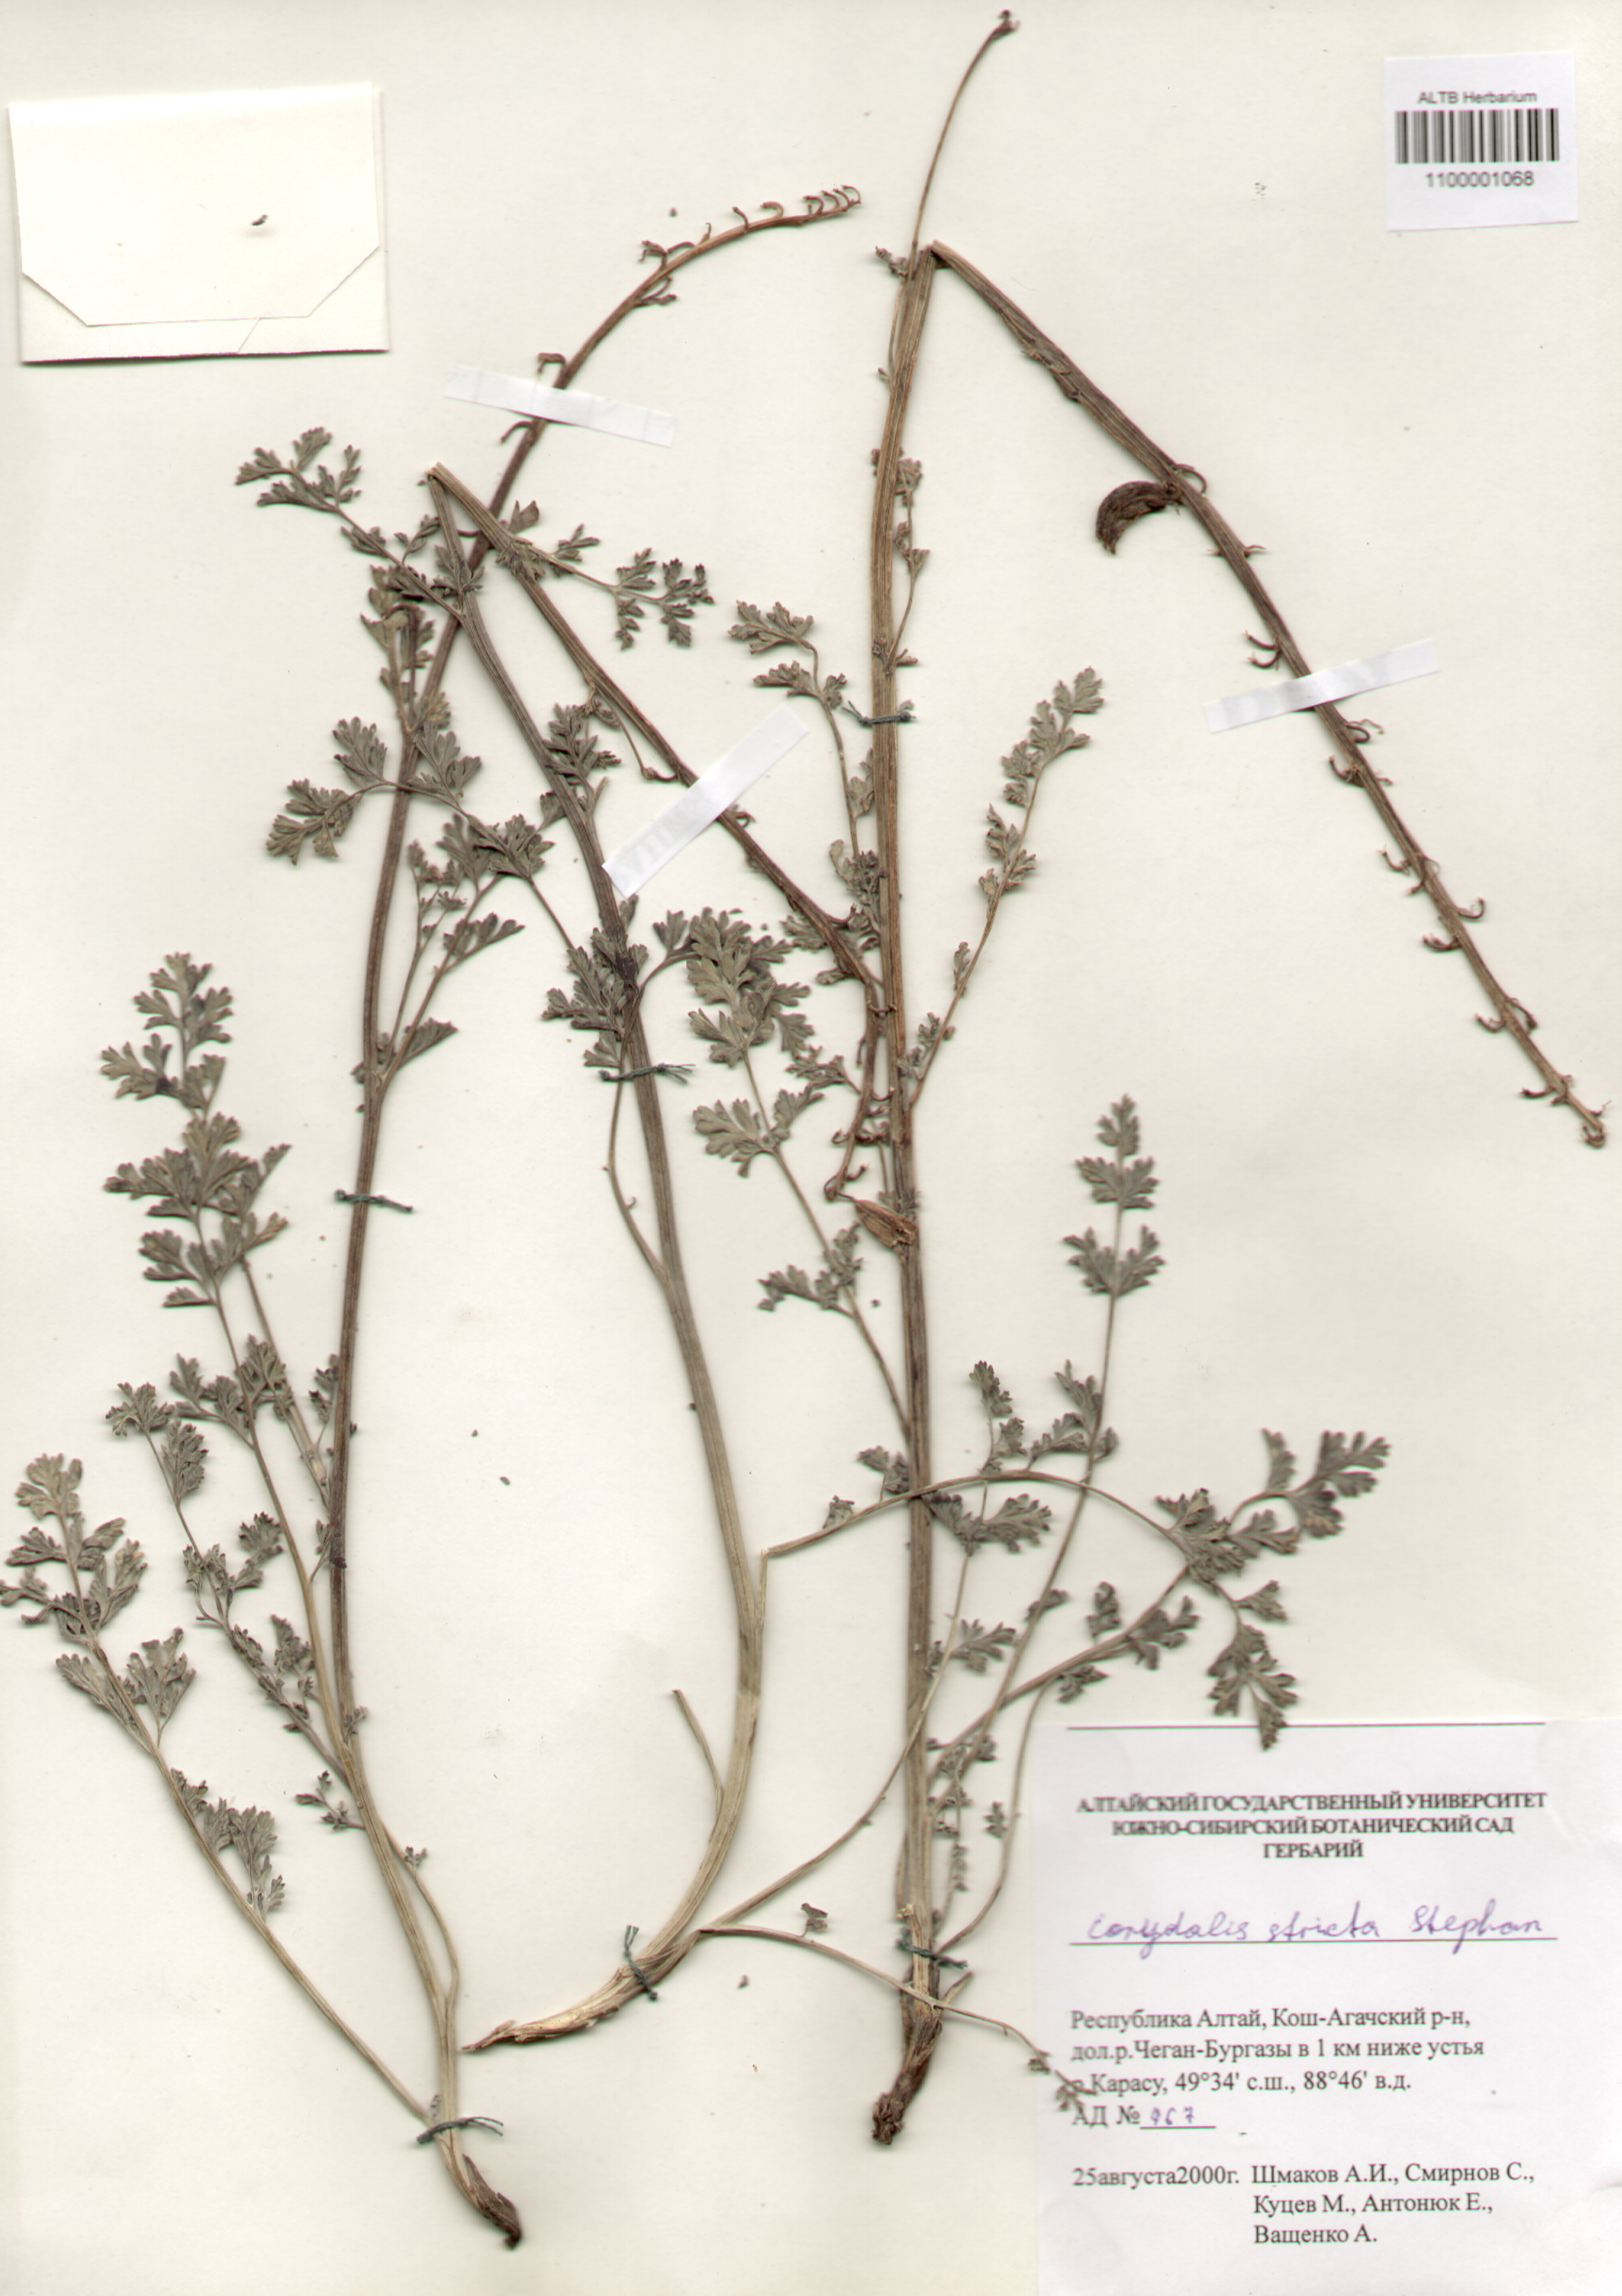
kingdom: Plantae
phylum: Tracheophyta
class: Magnoliopsida
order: Ranunculales
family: Papaveraceae
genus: Corydalis
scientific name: Corydalis stricta
